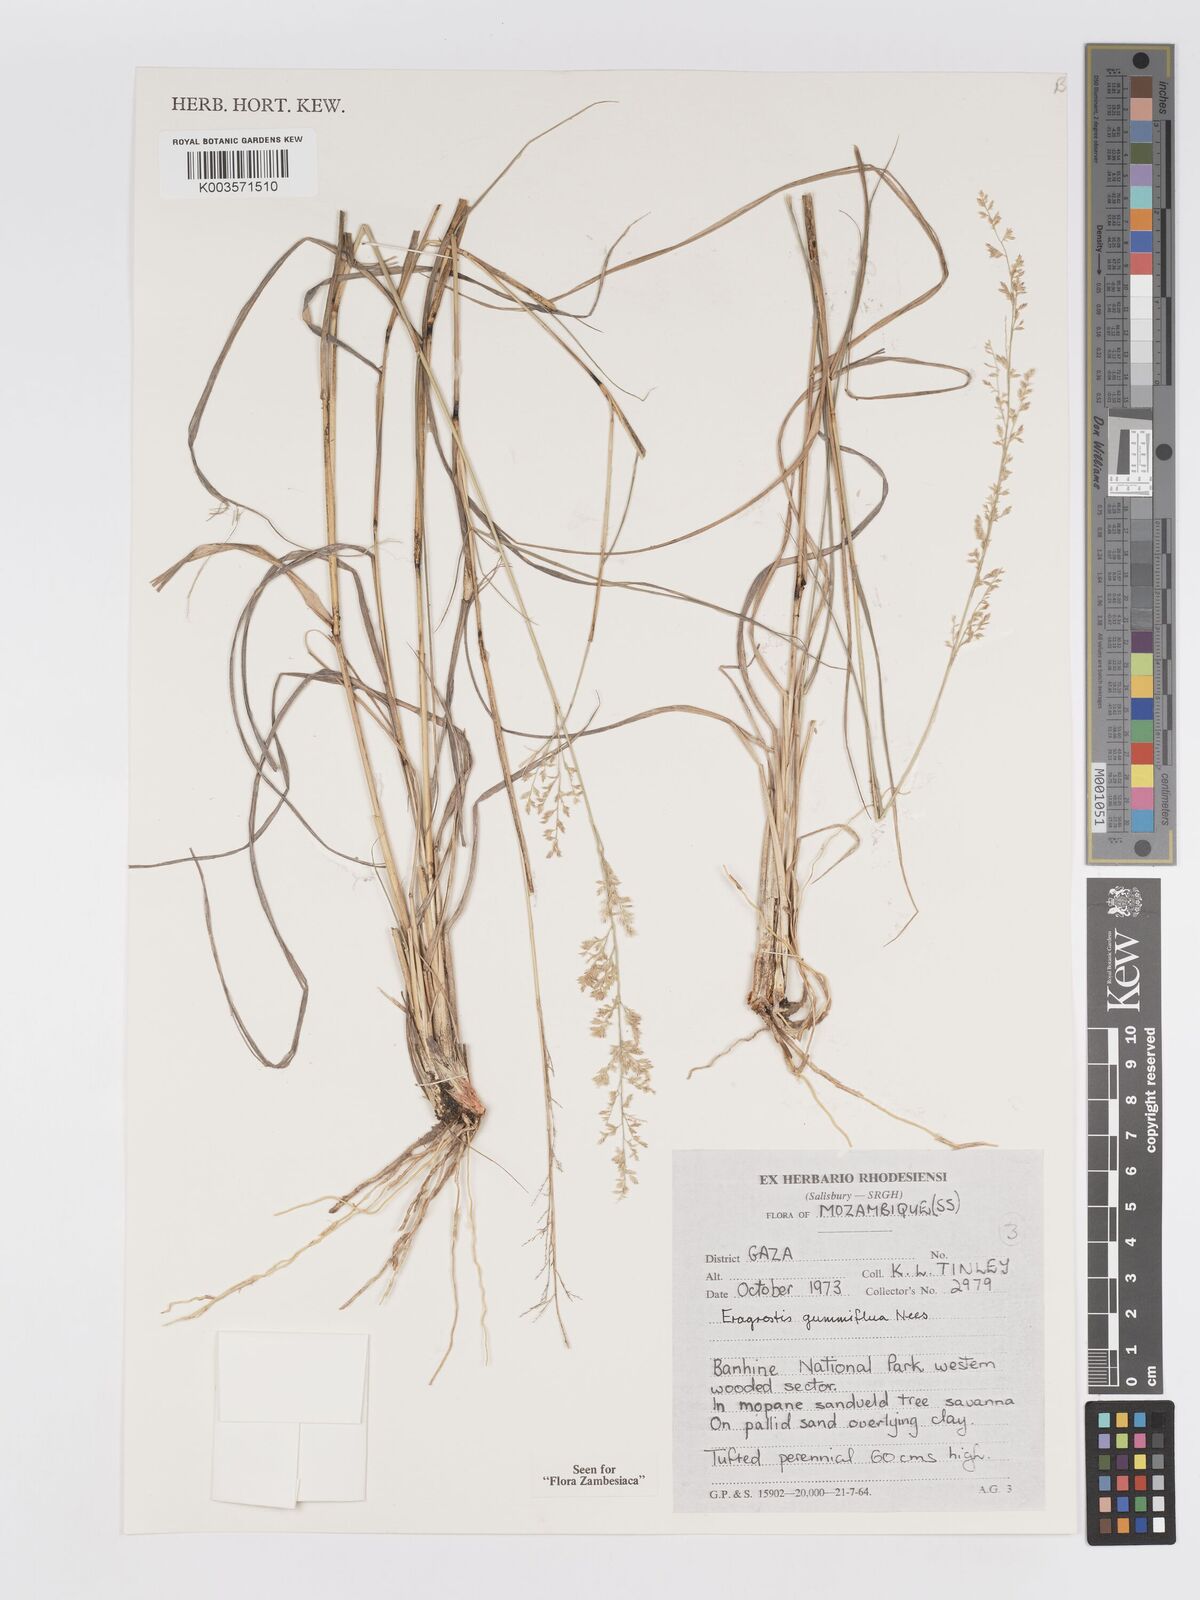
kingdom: Plantae
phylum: Tracheophyta
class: Liliopsida
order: Poales
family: Poaceae
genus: Eragrostis
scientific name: Eragrostis gummiflua
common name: Gum grass
